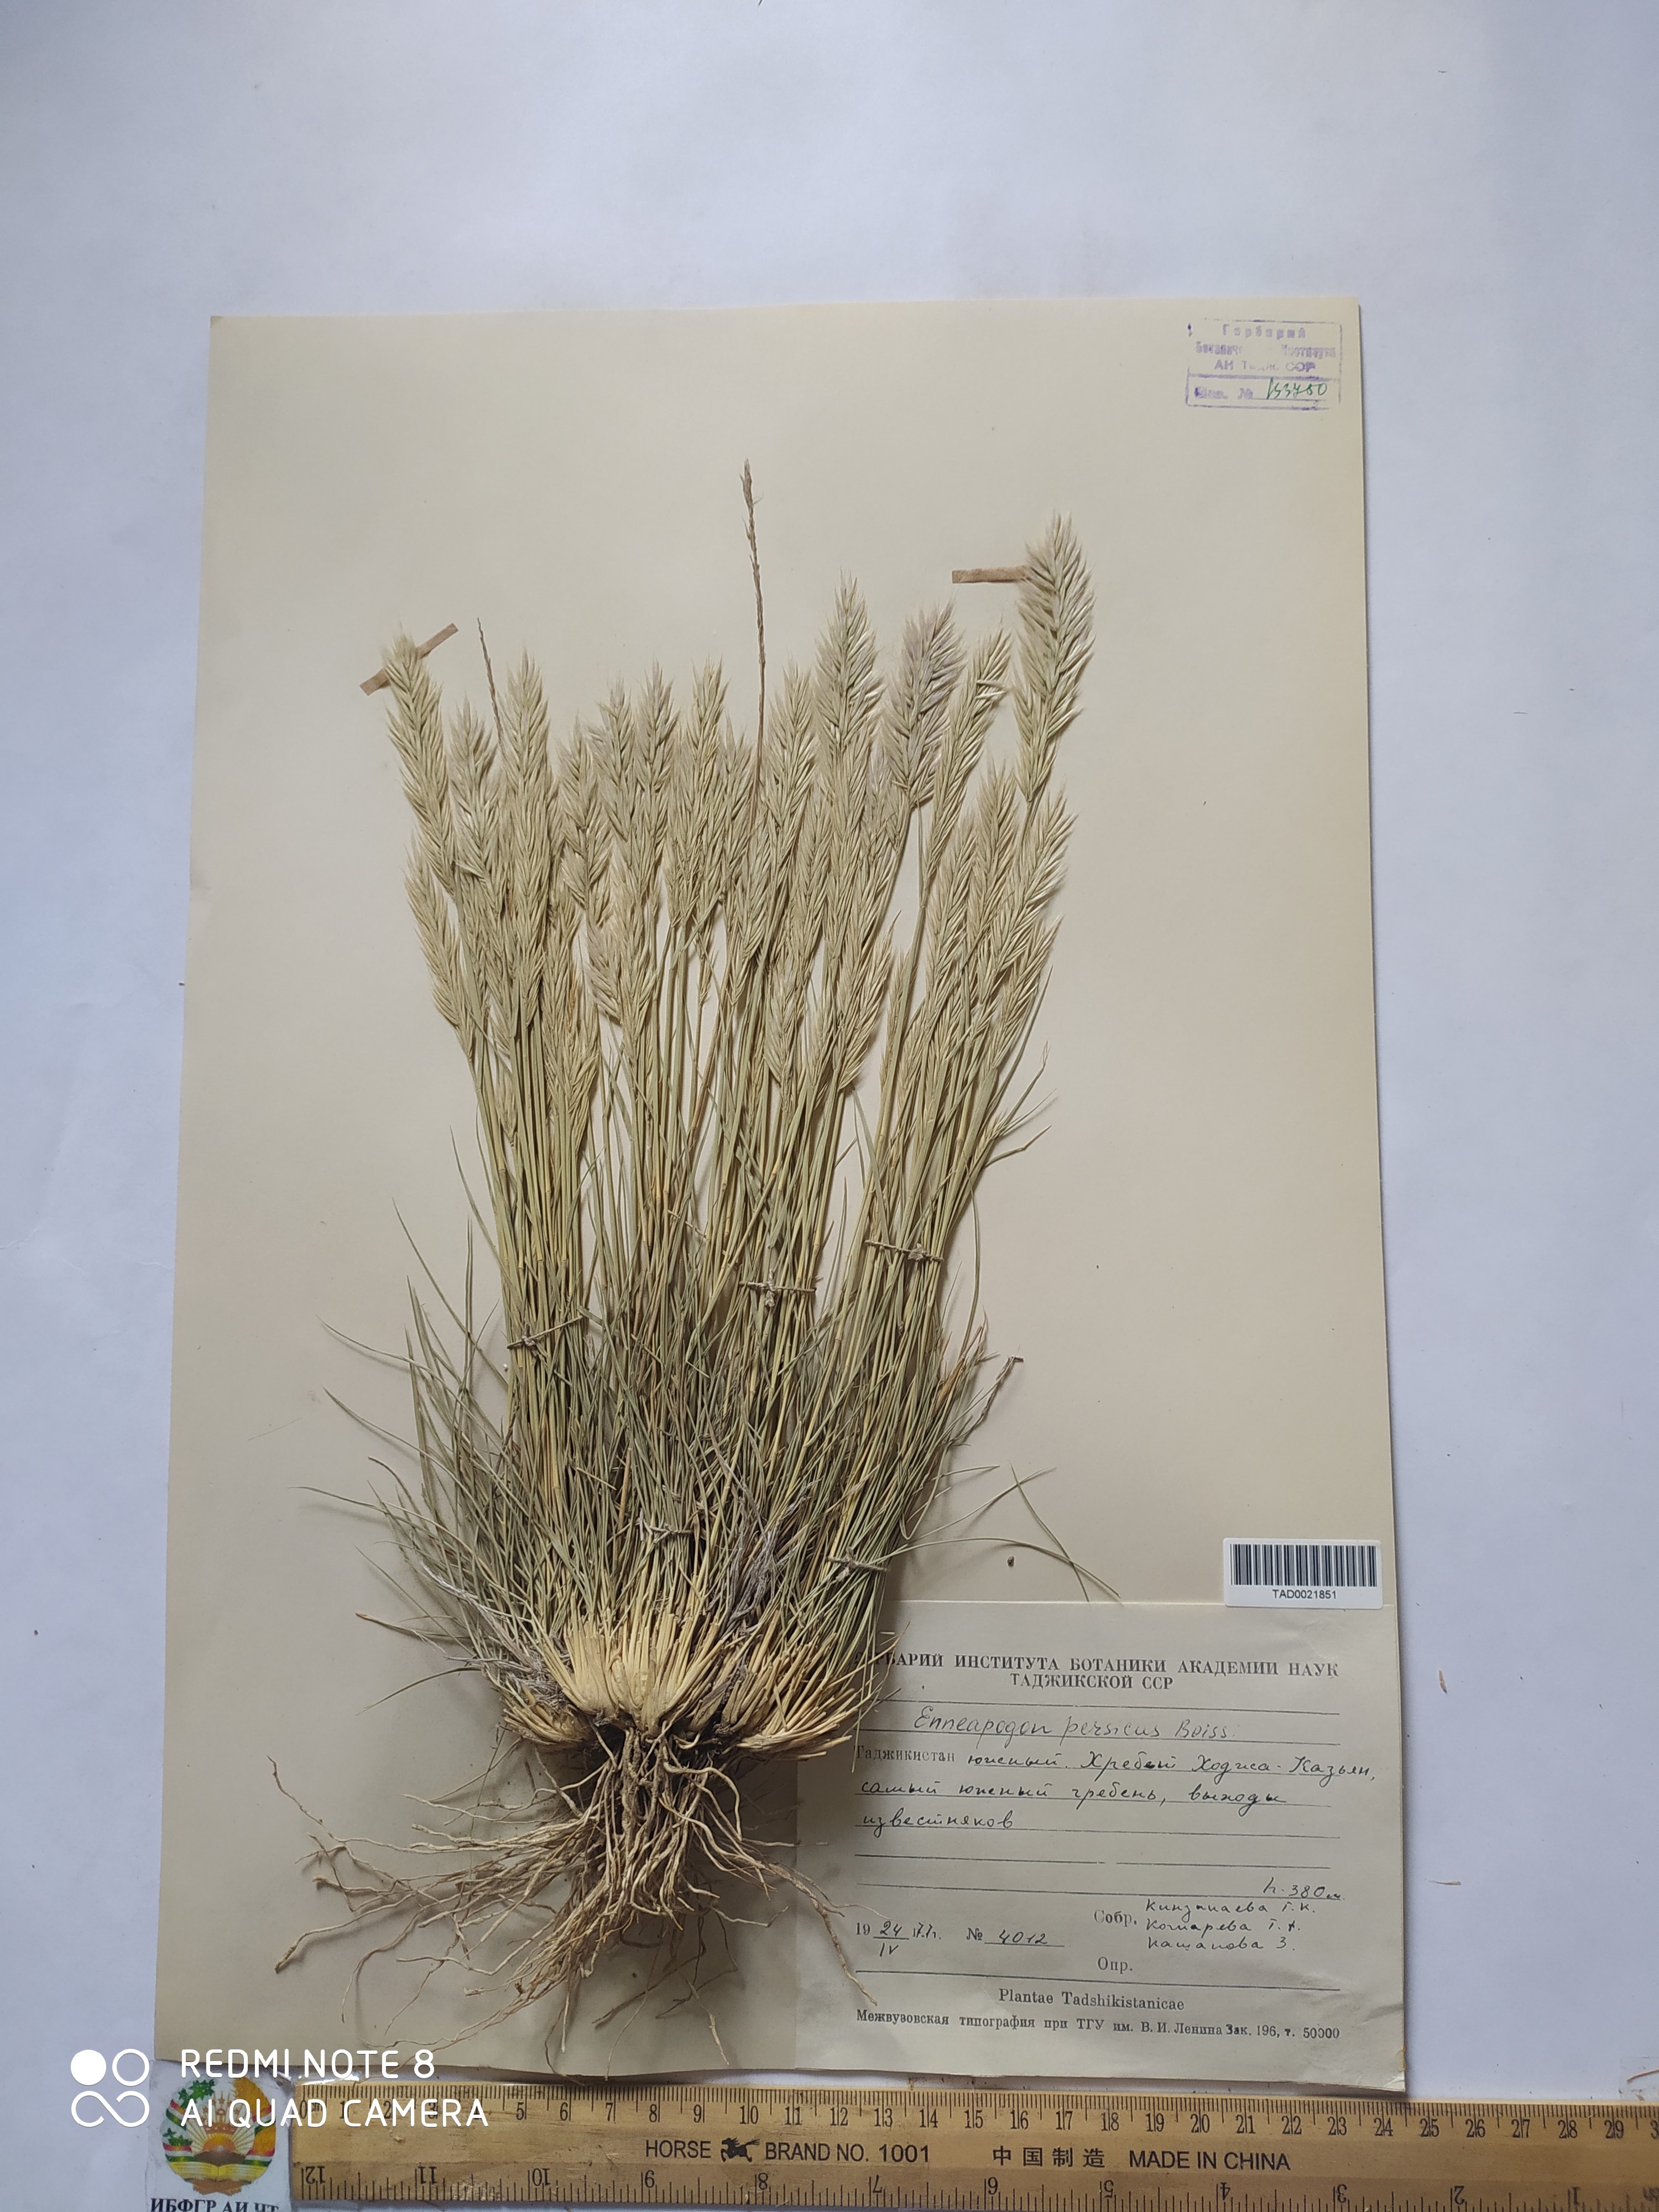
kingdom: Plantae
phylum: Tracheophyta
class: Liliopsida
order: Poales
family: Poaceae
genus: Enneapogon
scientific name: Enneapogon persicus
